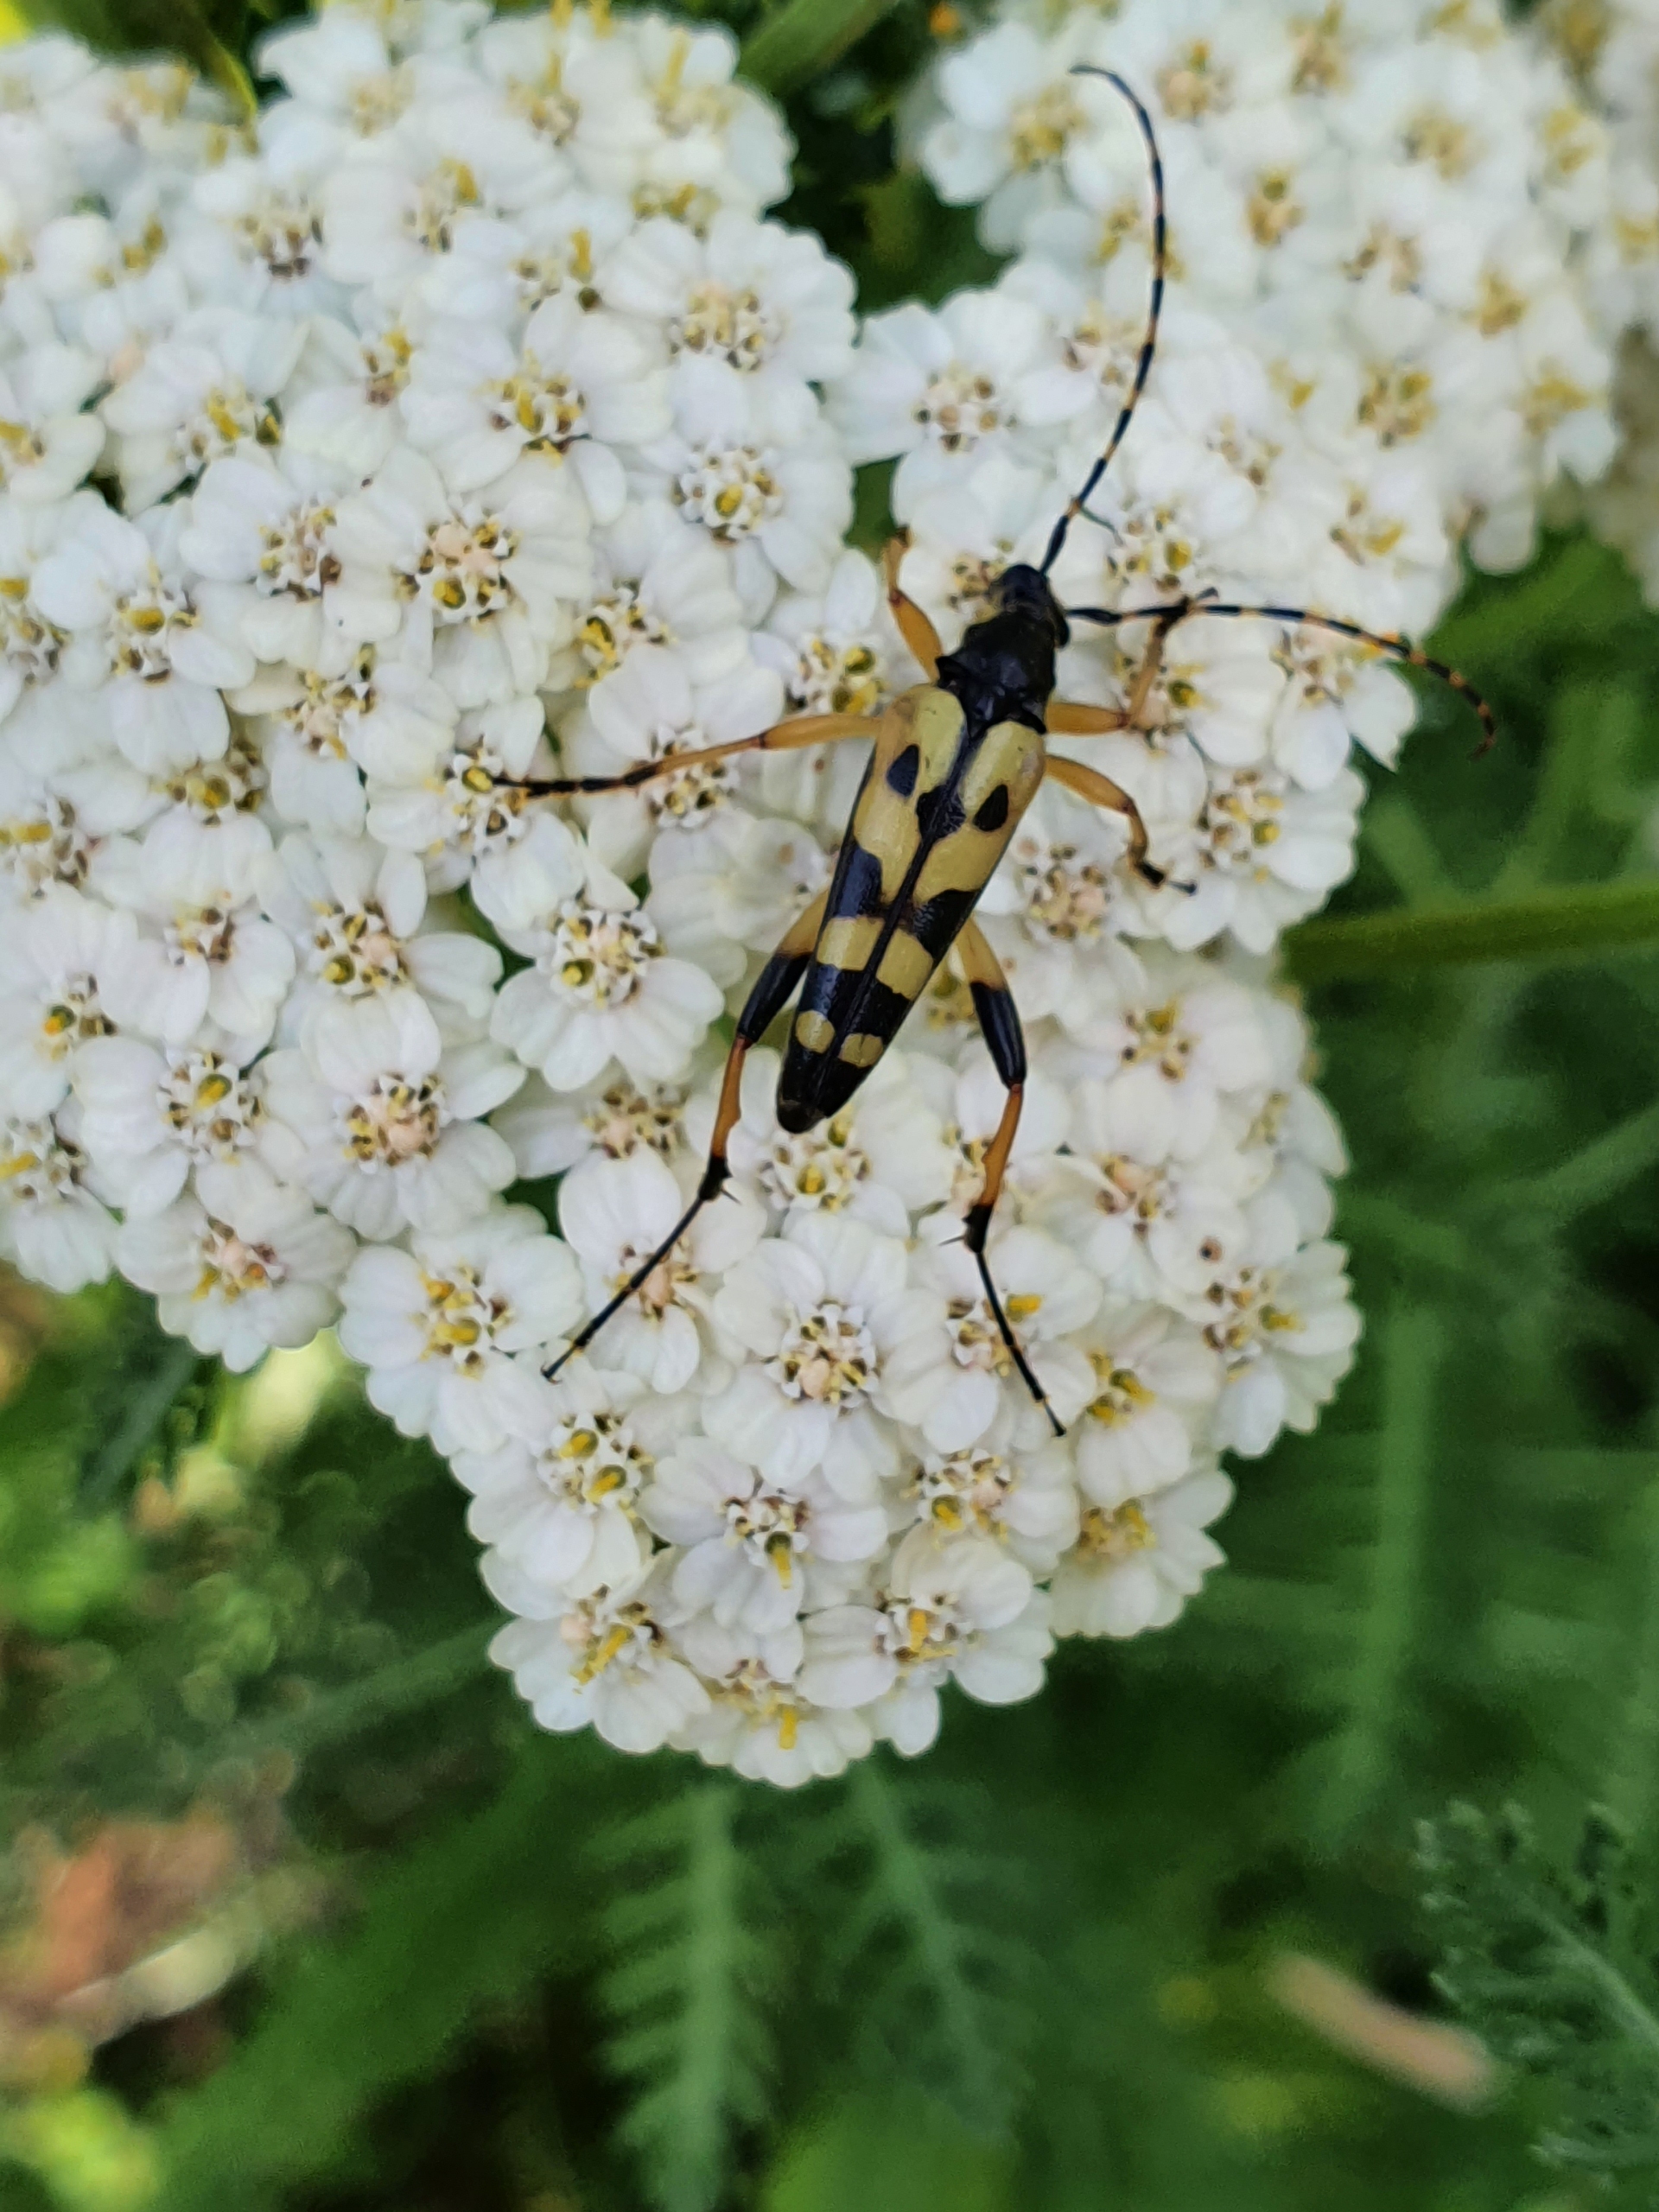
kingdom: Animalia
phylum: Arthropoda
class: Insecta
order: Coleoptera
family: Cerambycidae
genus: Rutpela
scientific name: Rutpela maculata
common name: Sydlig blomsterbuk
